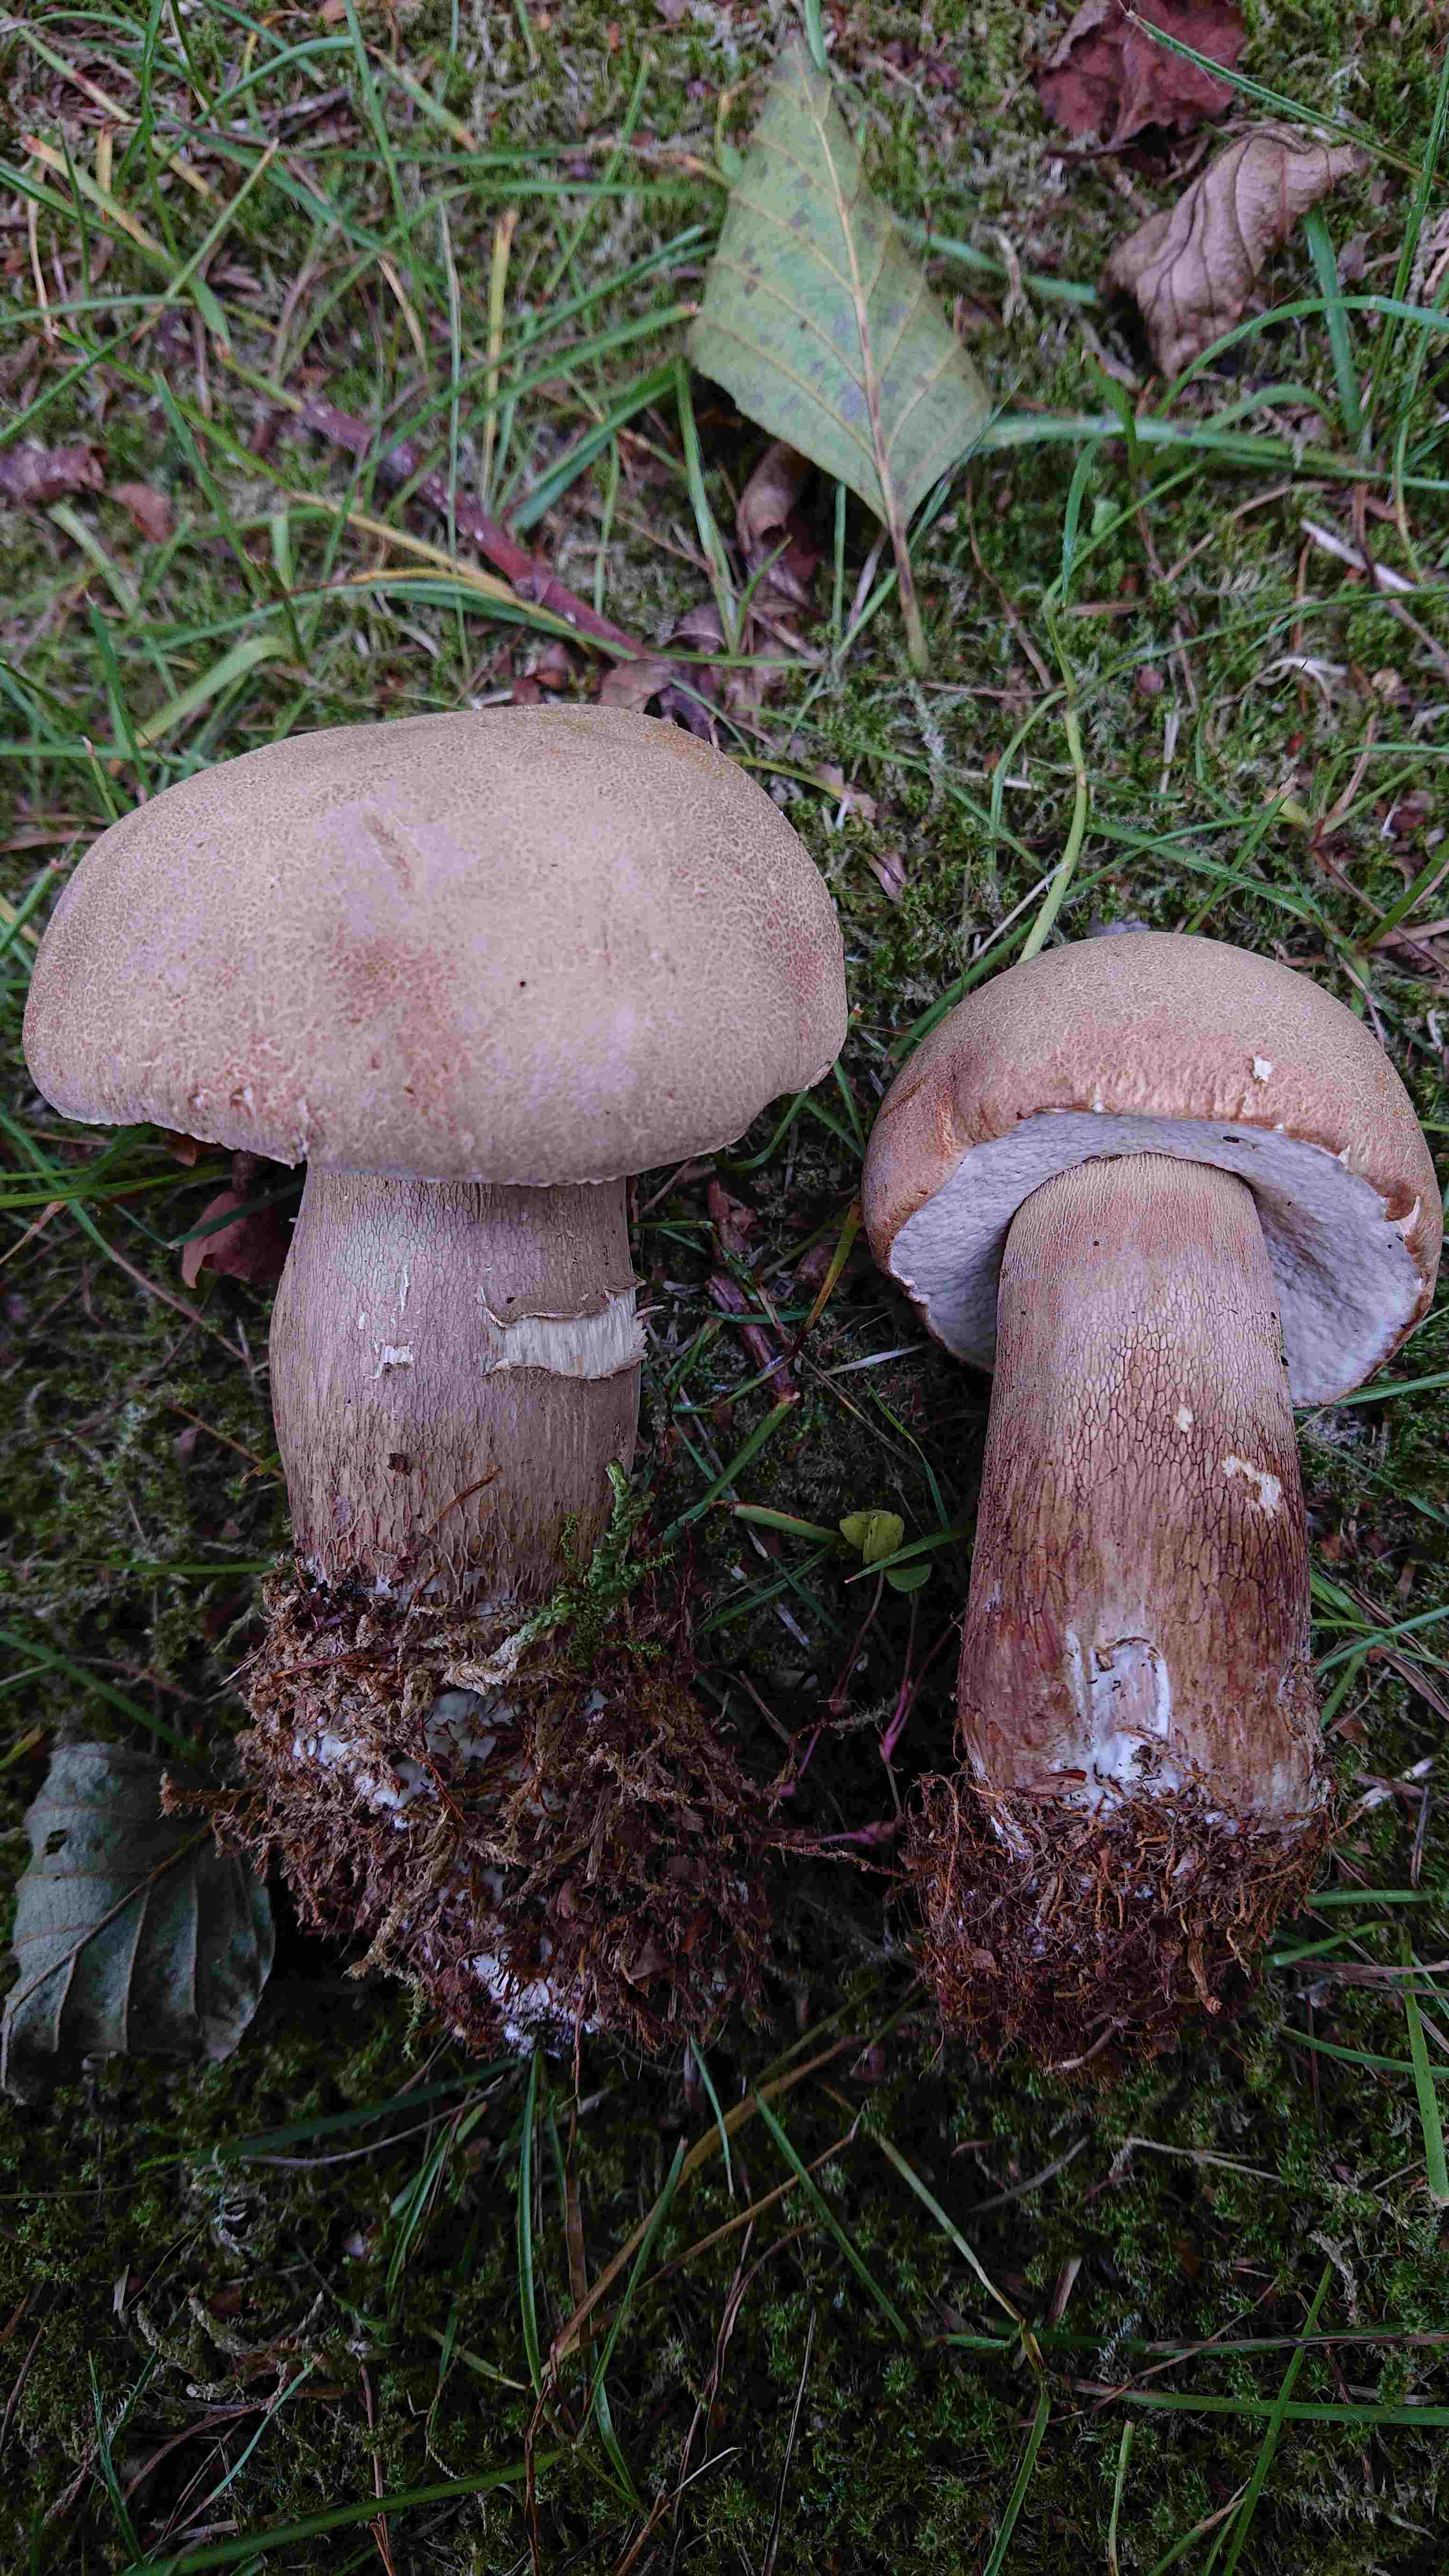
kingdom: Fungi
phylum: Basidiomycota
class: Agaricomycetes
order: Boletales
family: Boletaceae
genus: Boletus
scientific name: Boletus reticulatus
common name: sommer-rørhat
